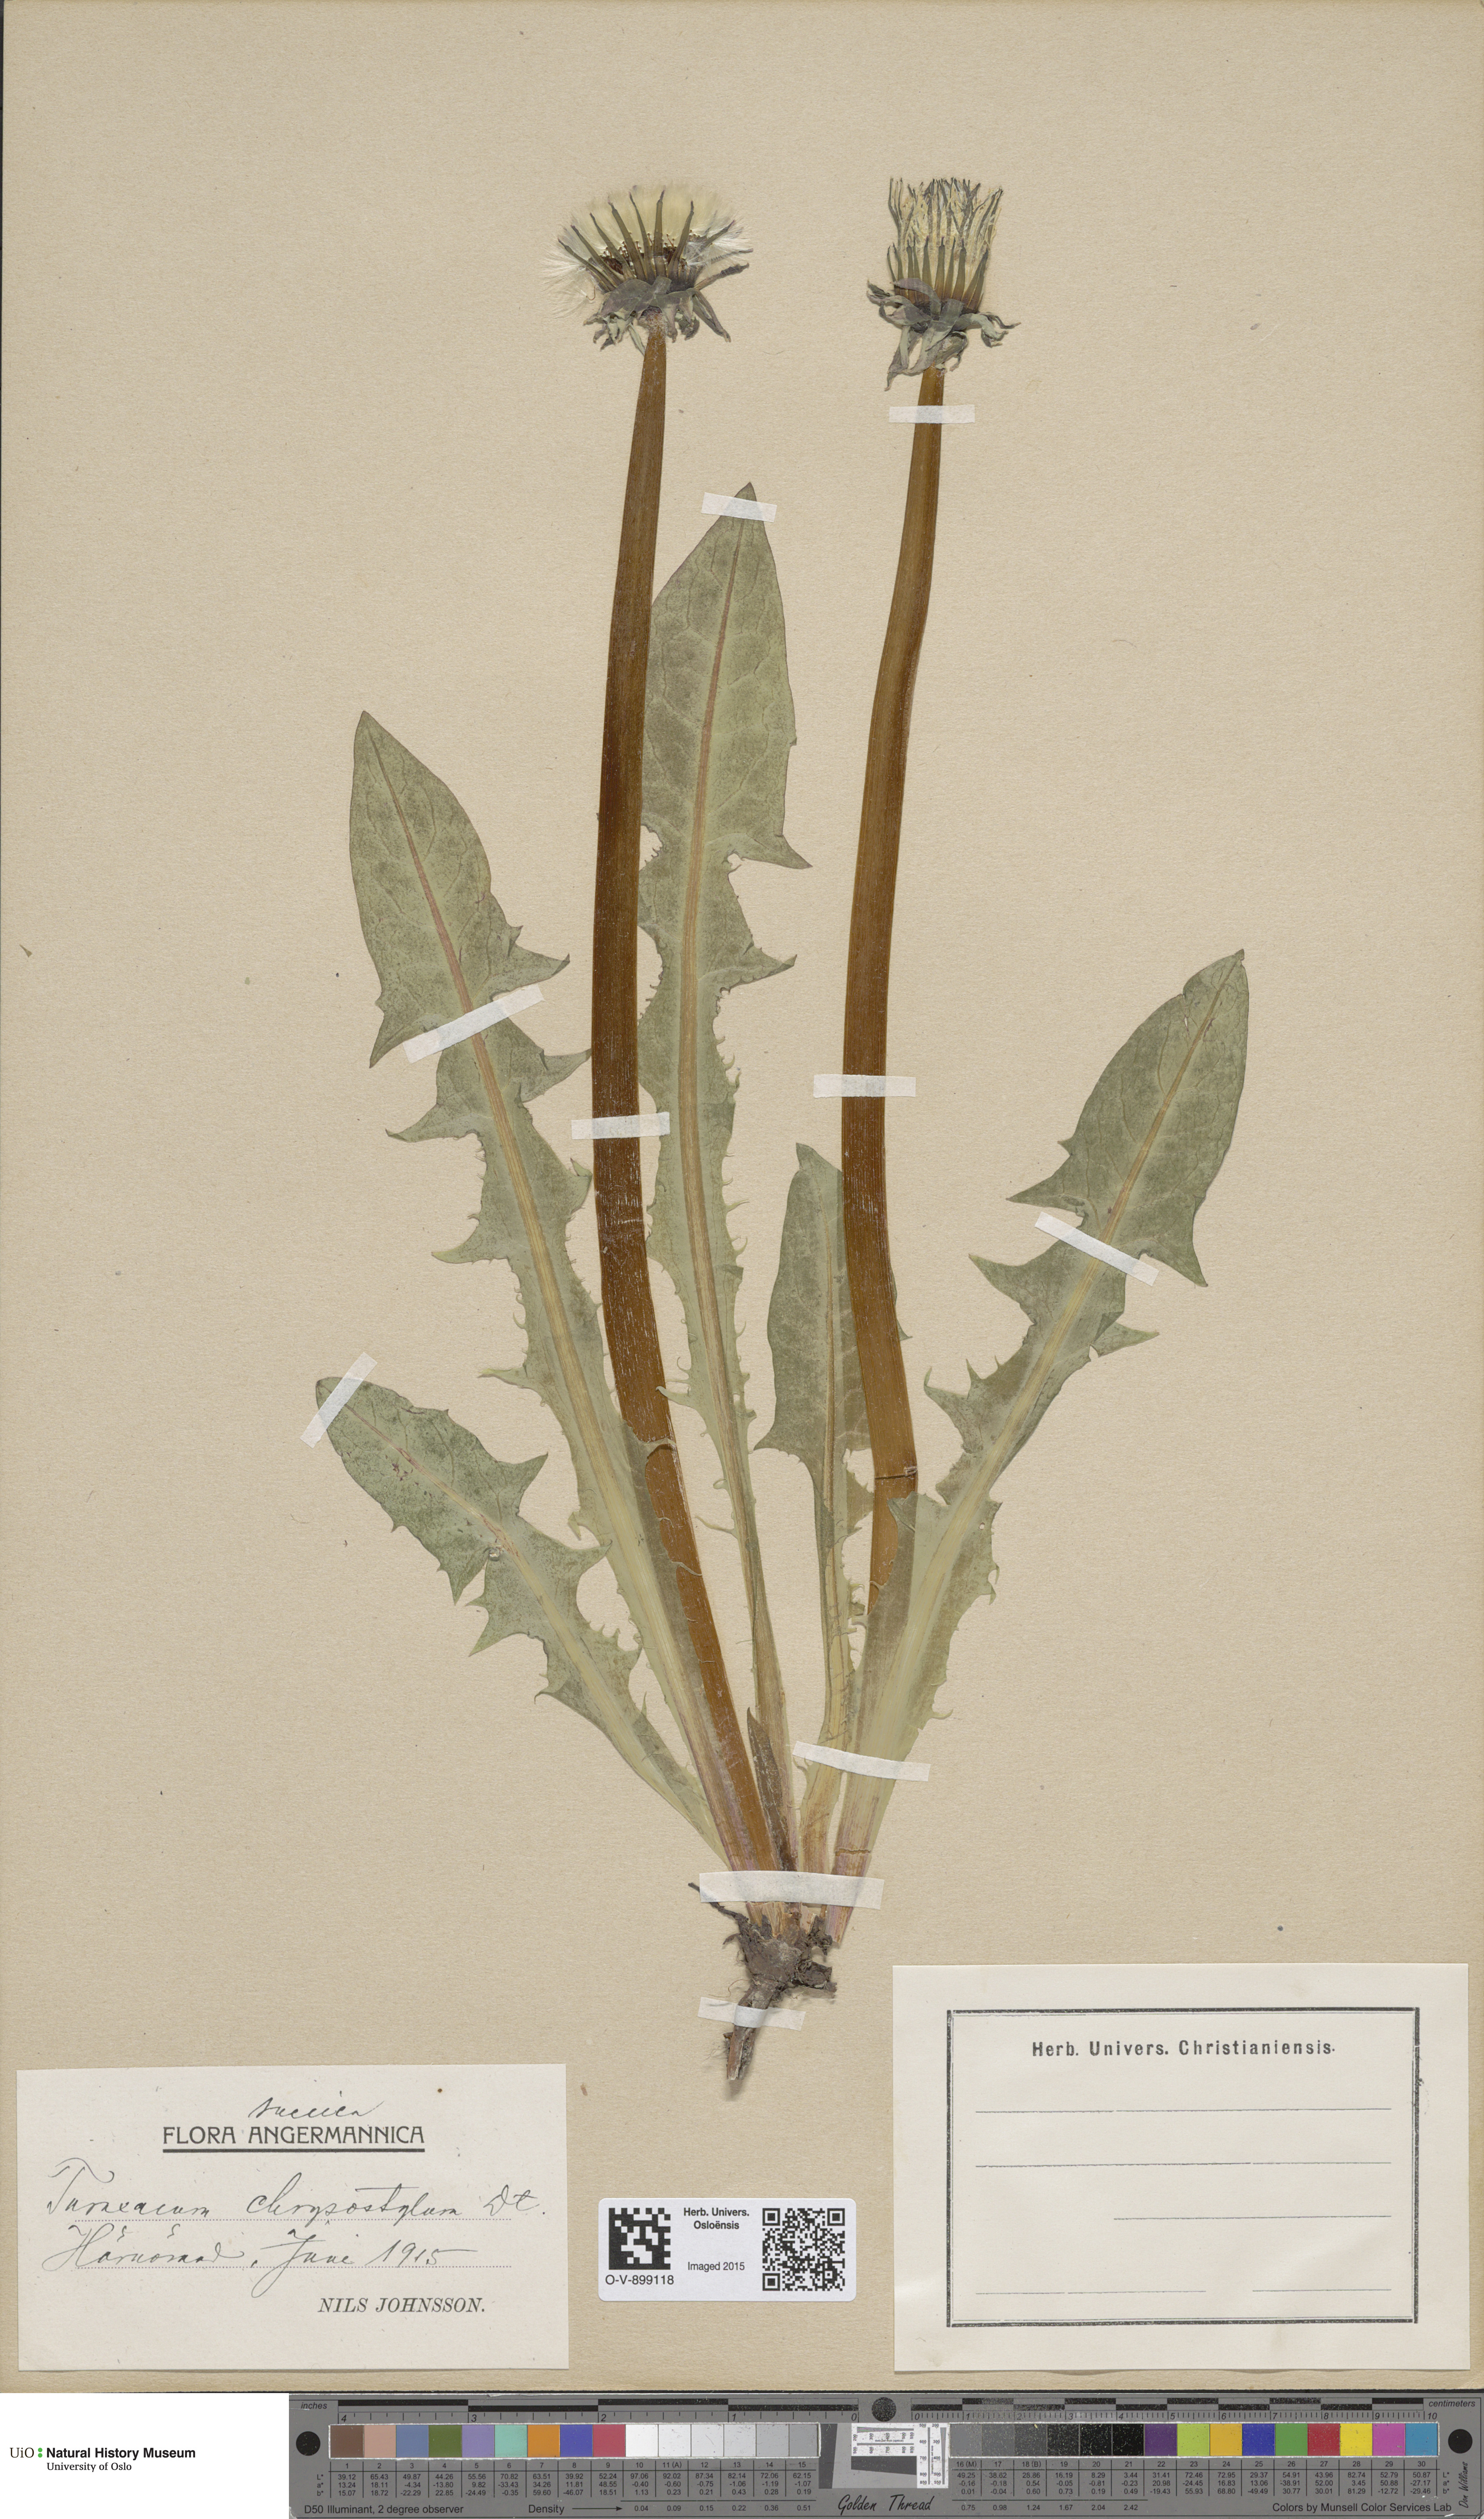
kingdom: Plantae
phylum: Tracheophyta
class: Magnoliopsida
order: Asterales
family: Asteraceae
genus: Taraxacum
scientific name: Taraxacum chrysostylum
